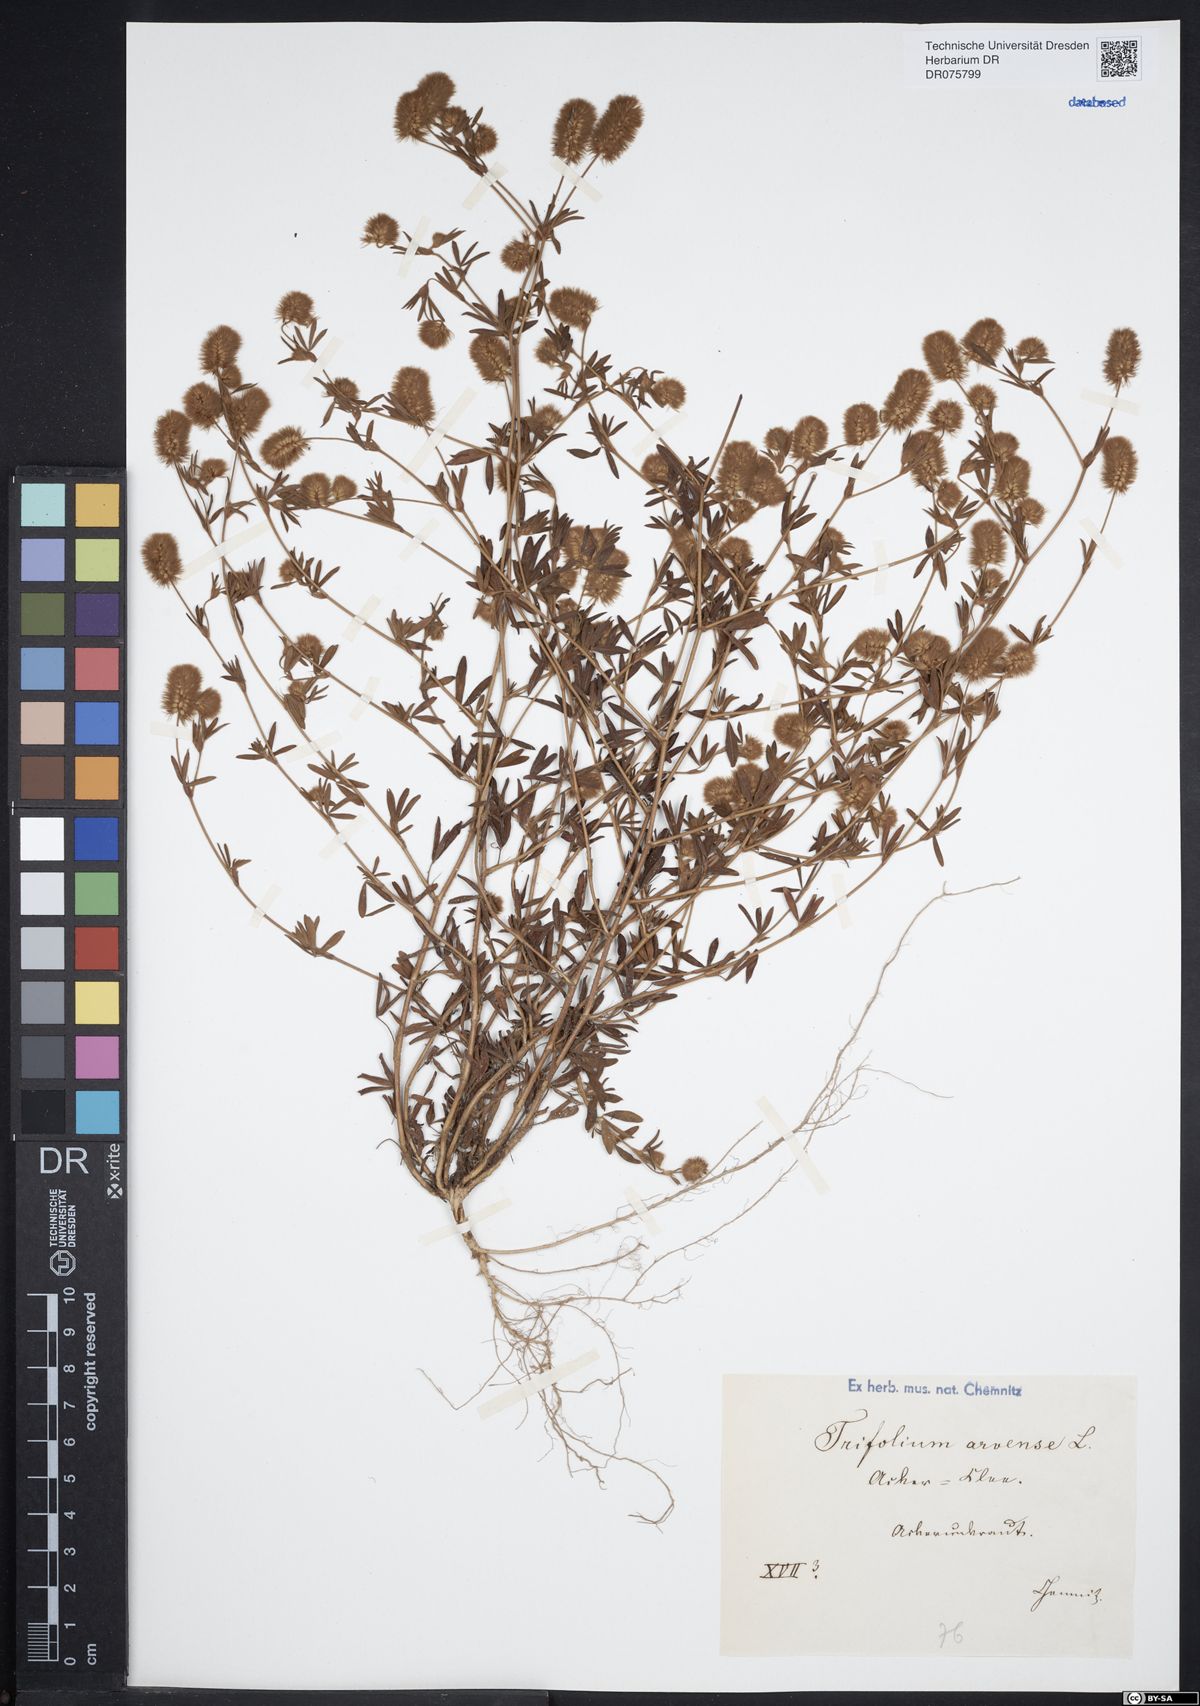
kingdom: Plantae
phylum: Tracheophyta
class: Magnoliopsida
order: Fabales
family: Fabaceae
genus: Trifolium
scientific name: Trifolium arvense
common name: Hare's-foot clover
